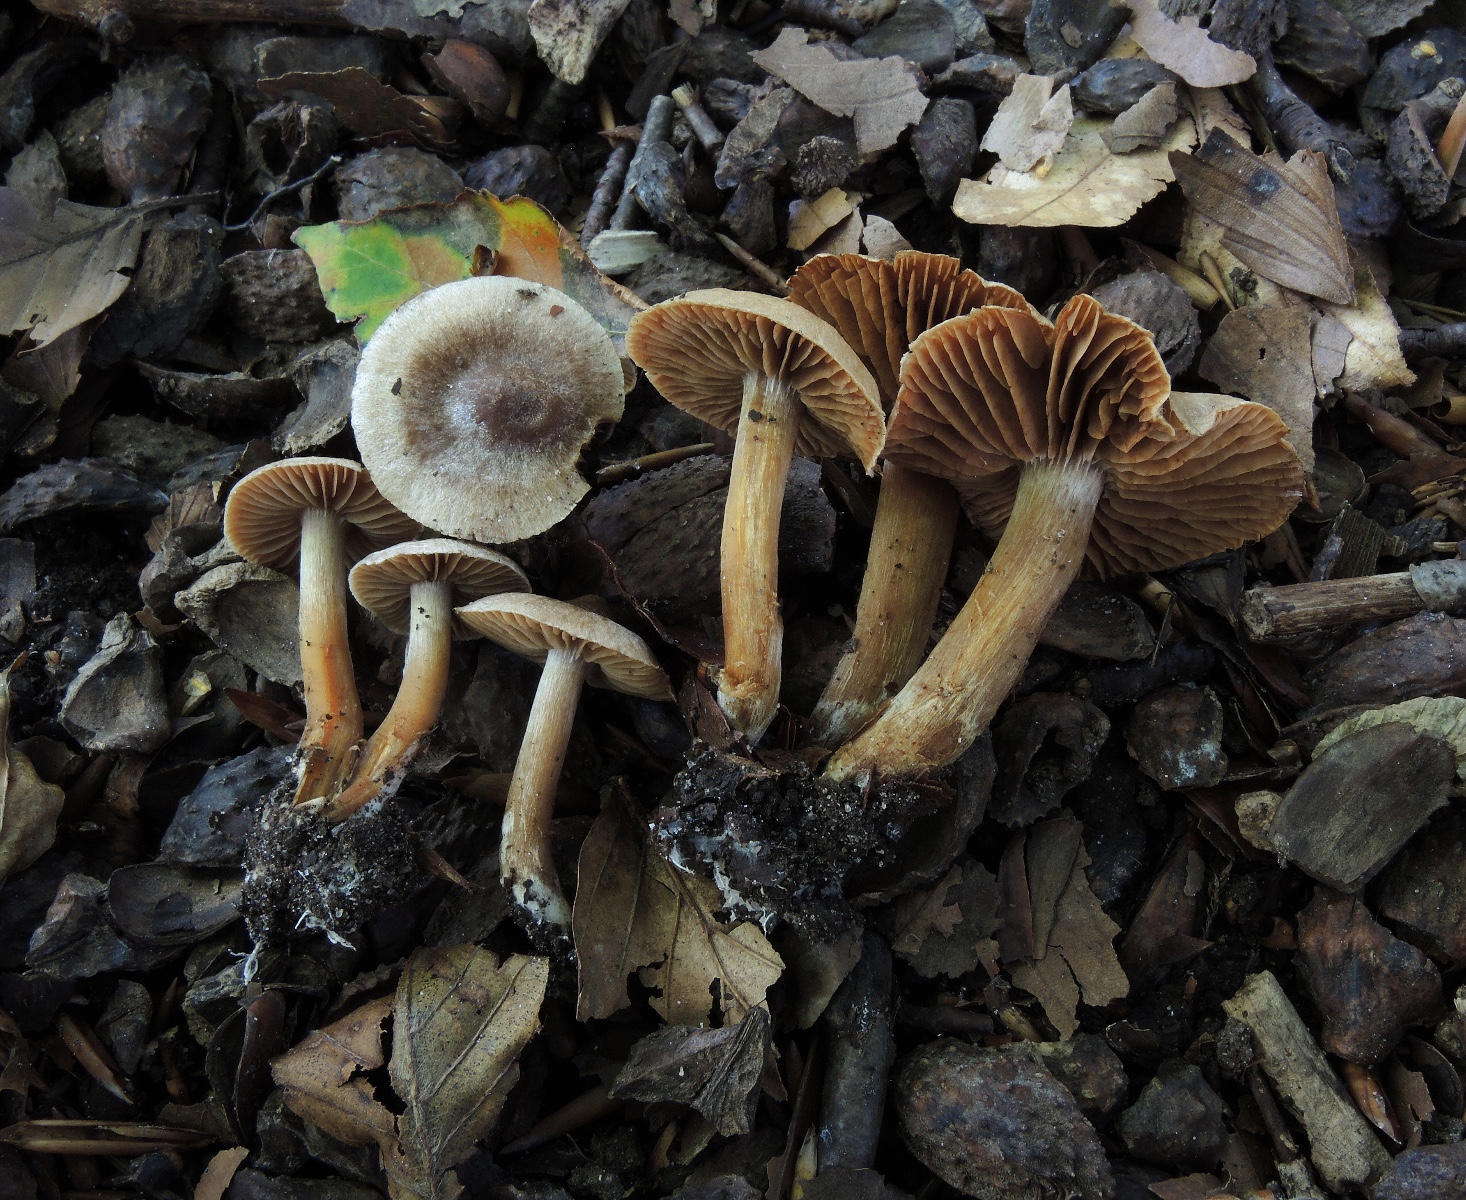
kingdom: Fungi
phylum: Basidiomycota
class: Agaricomycetes
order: Agaricales
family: Cortinariaceae
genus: Cortinarius
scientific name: Cortinarius elaphinicolor
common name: glat slørhat
